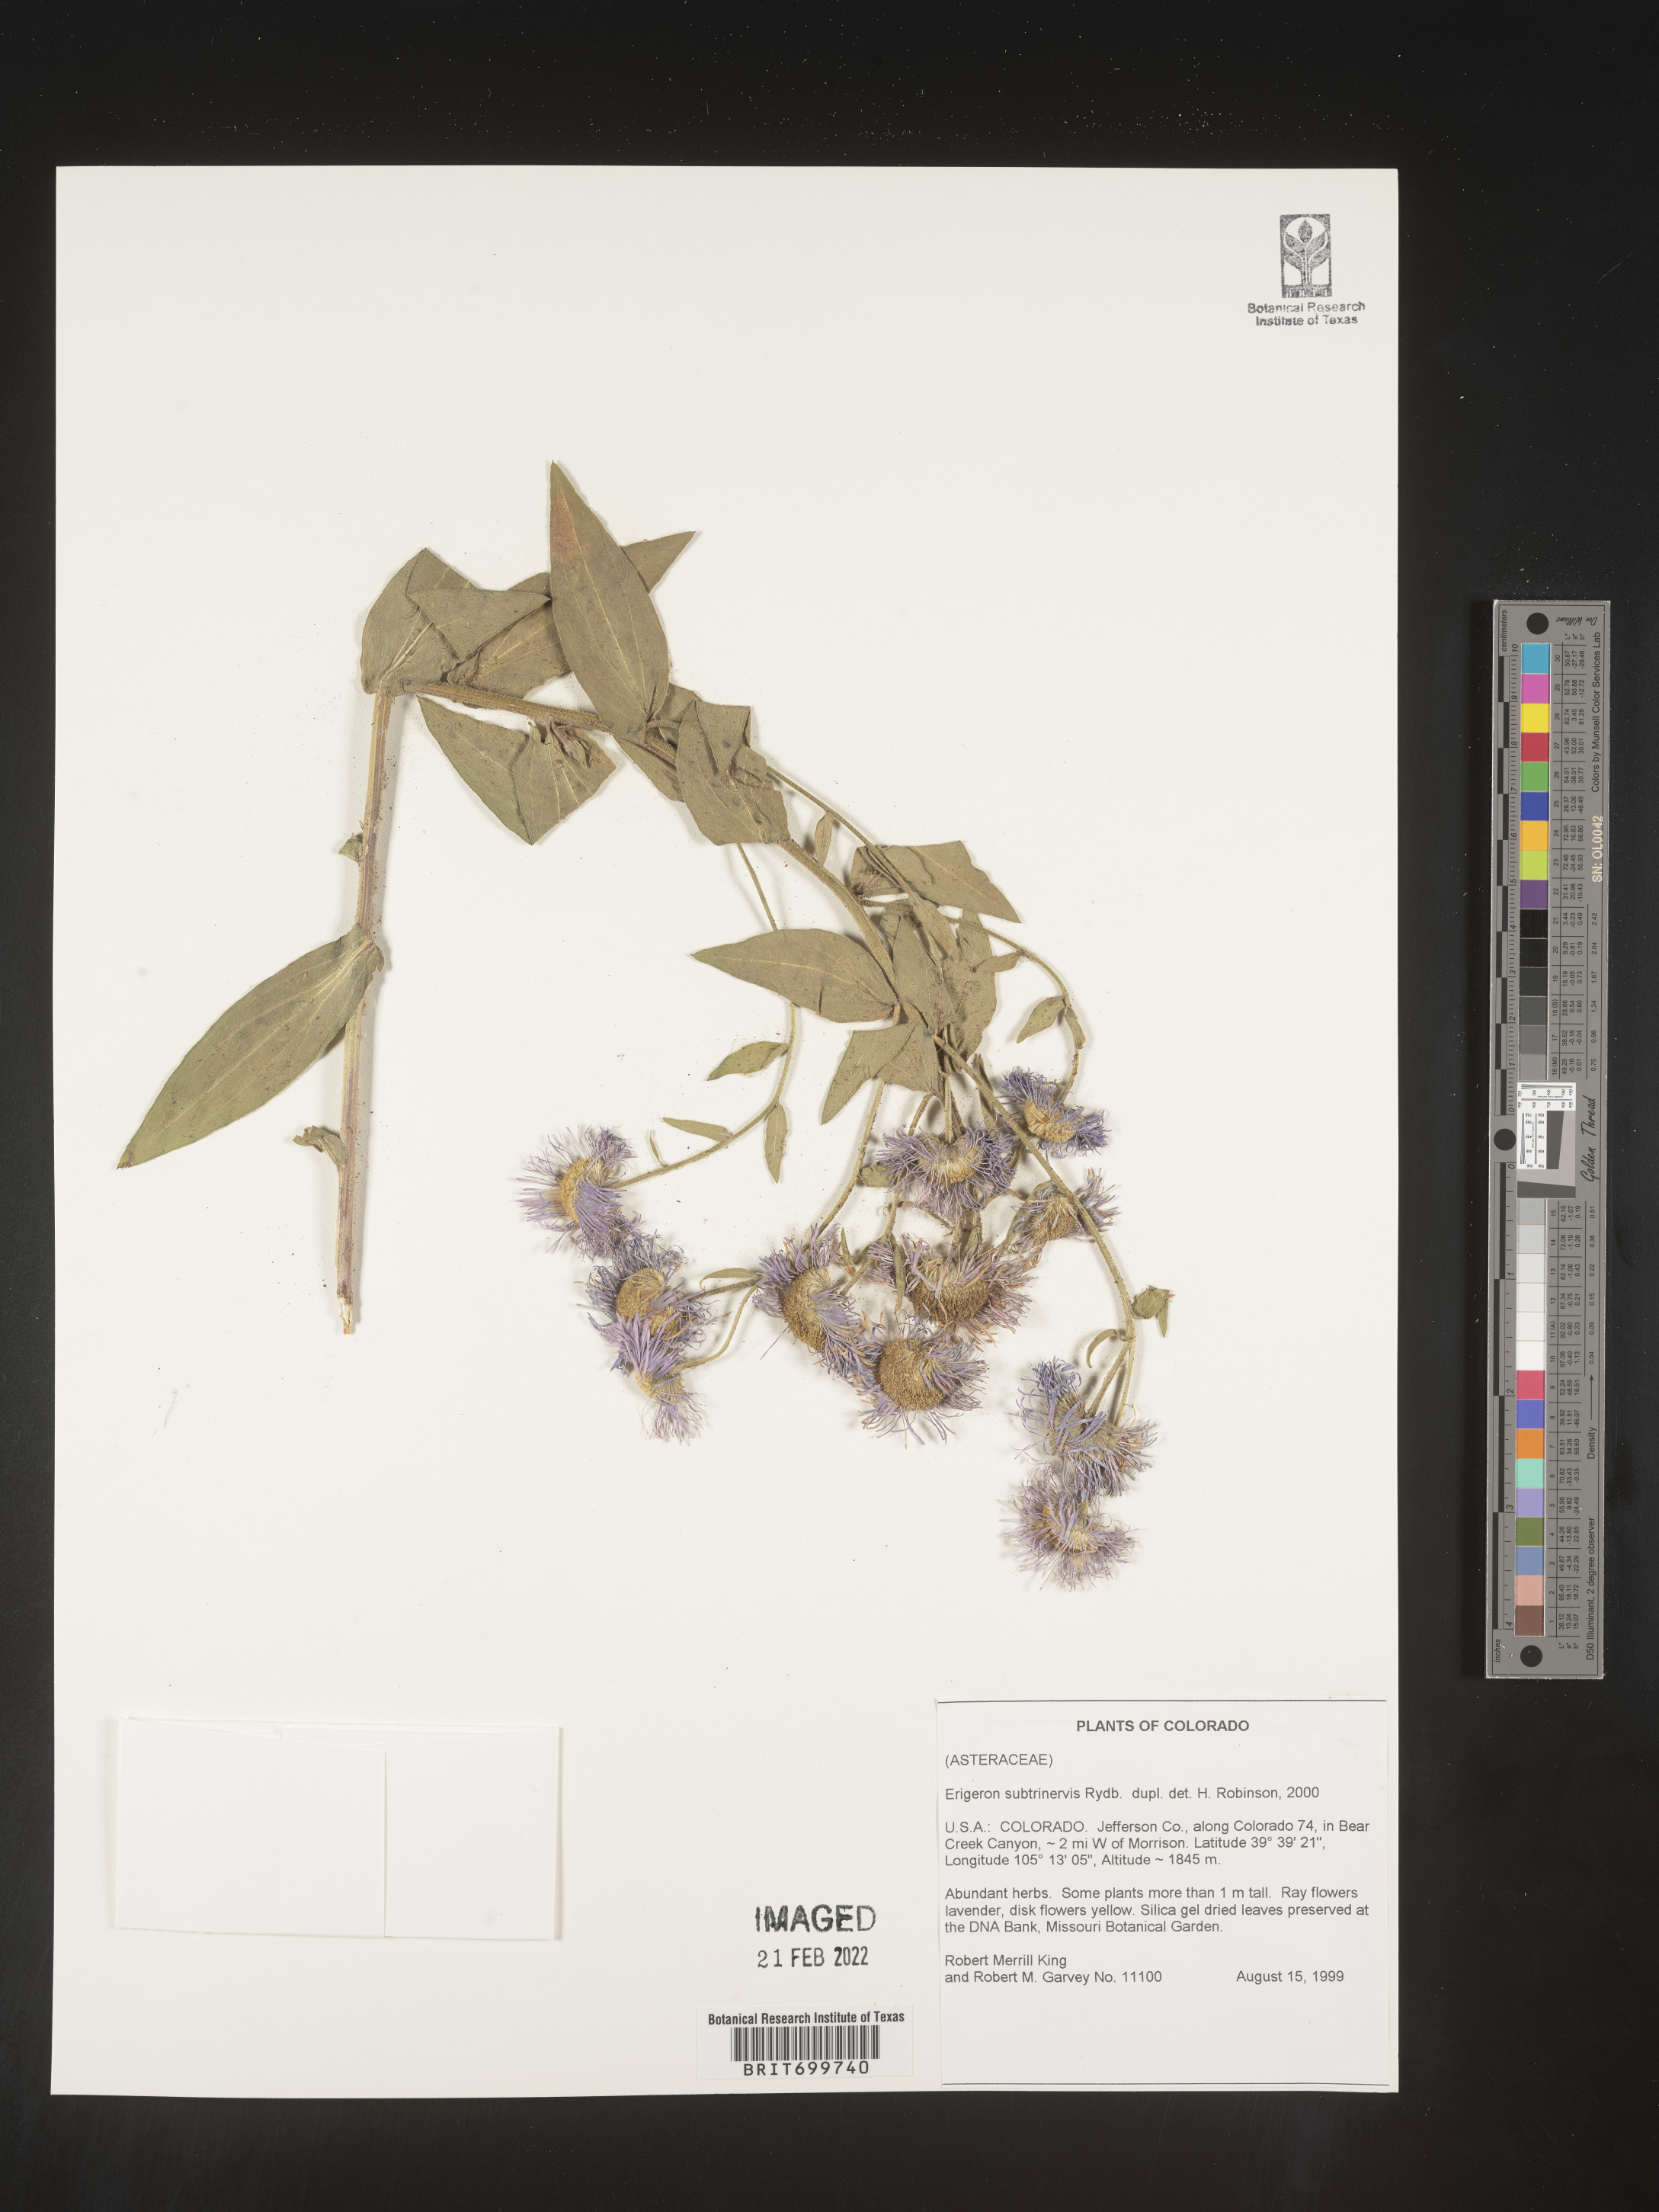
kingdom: Plantae
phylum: Tracheophyta
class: Magnoliopsida
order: Asterales
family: Asteraceae
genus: Erigeron
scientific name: Erigeron subtrinervis
